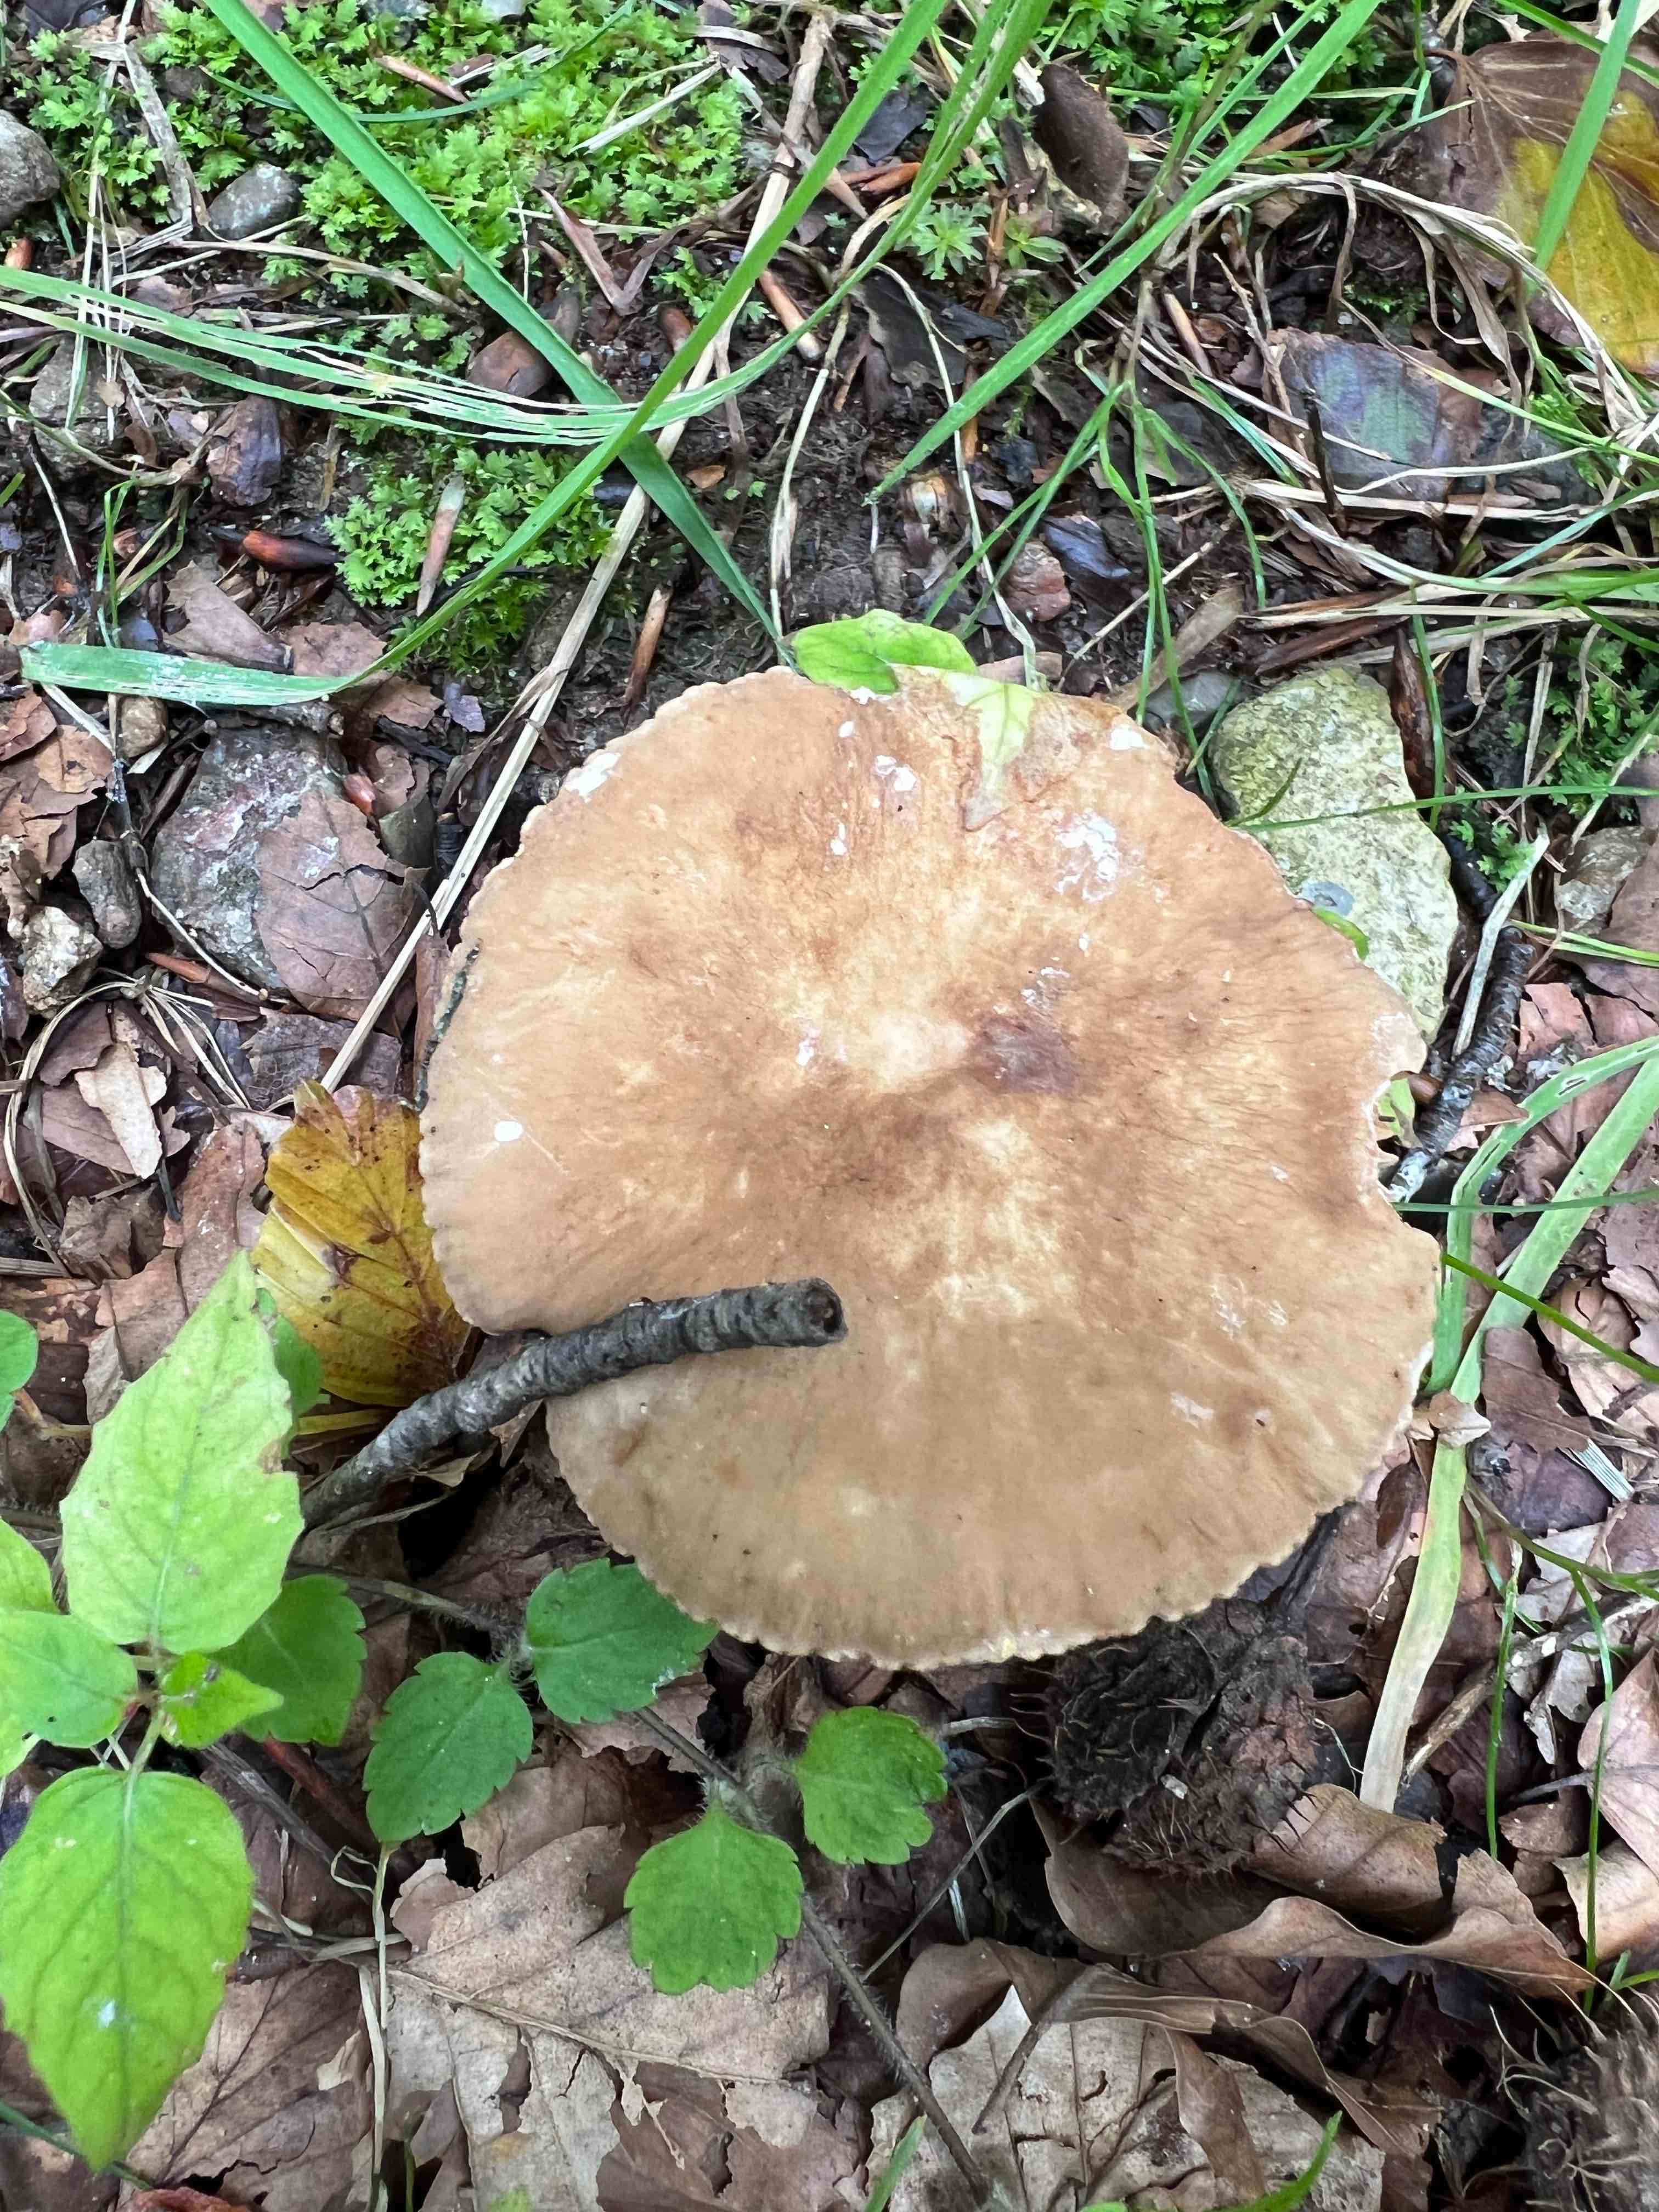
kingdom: Fungi
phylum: Basidiomycota
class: Agaricomycetes
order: Russulales
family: Russulaceae
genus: Lactarius
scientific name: Lactarius
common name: mælkehat
